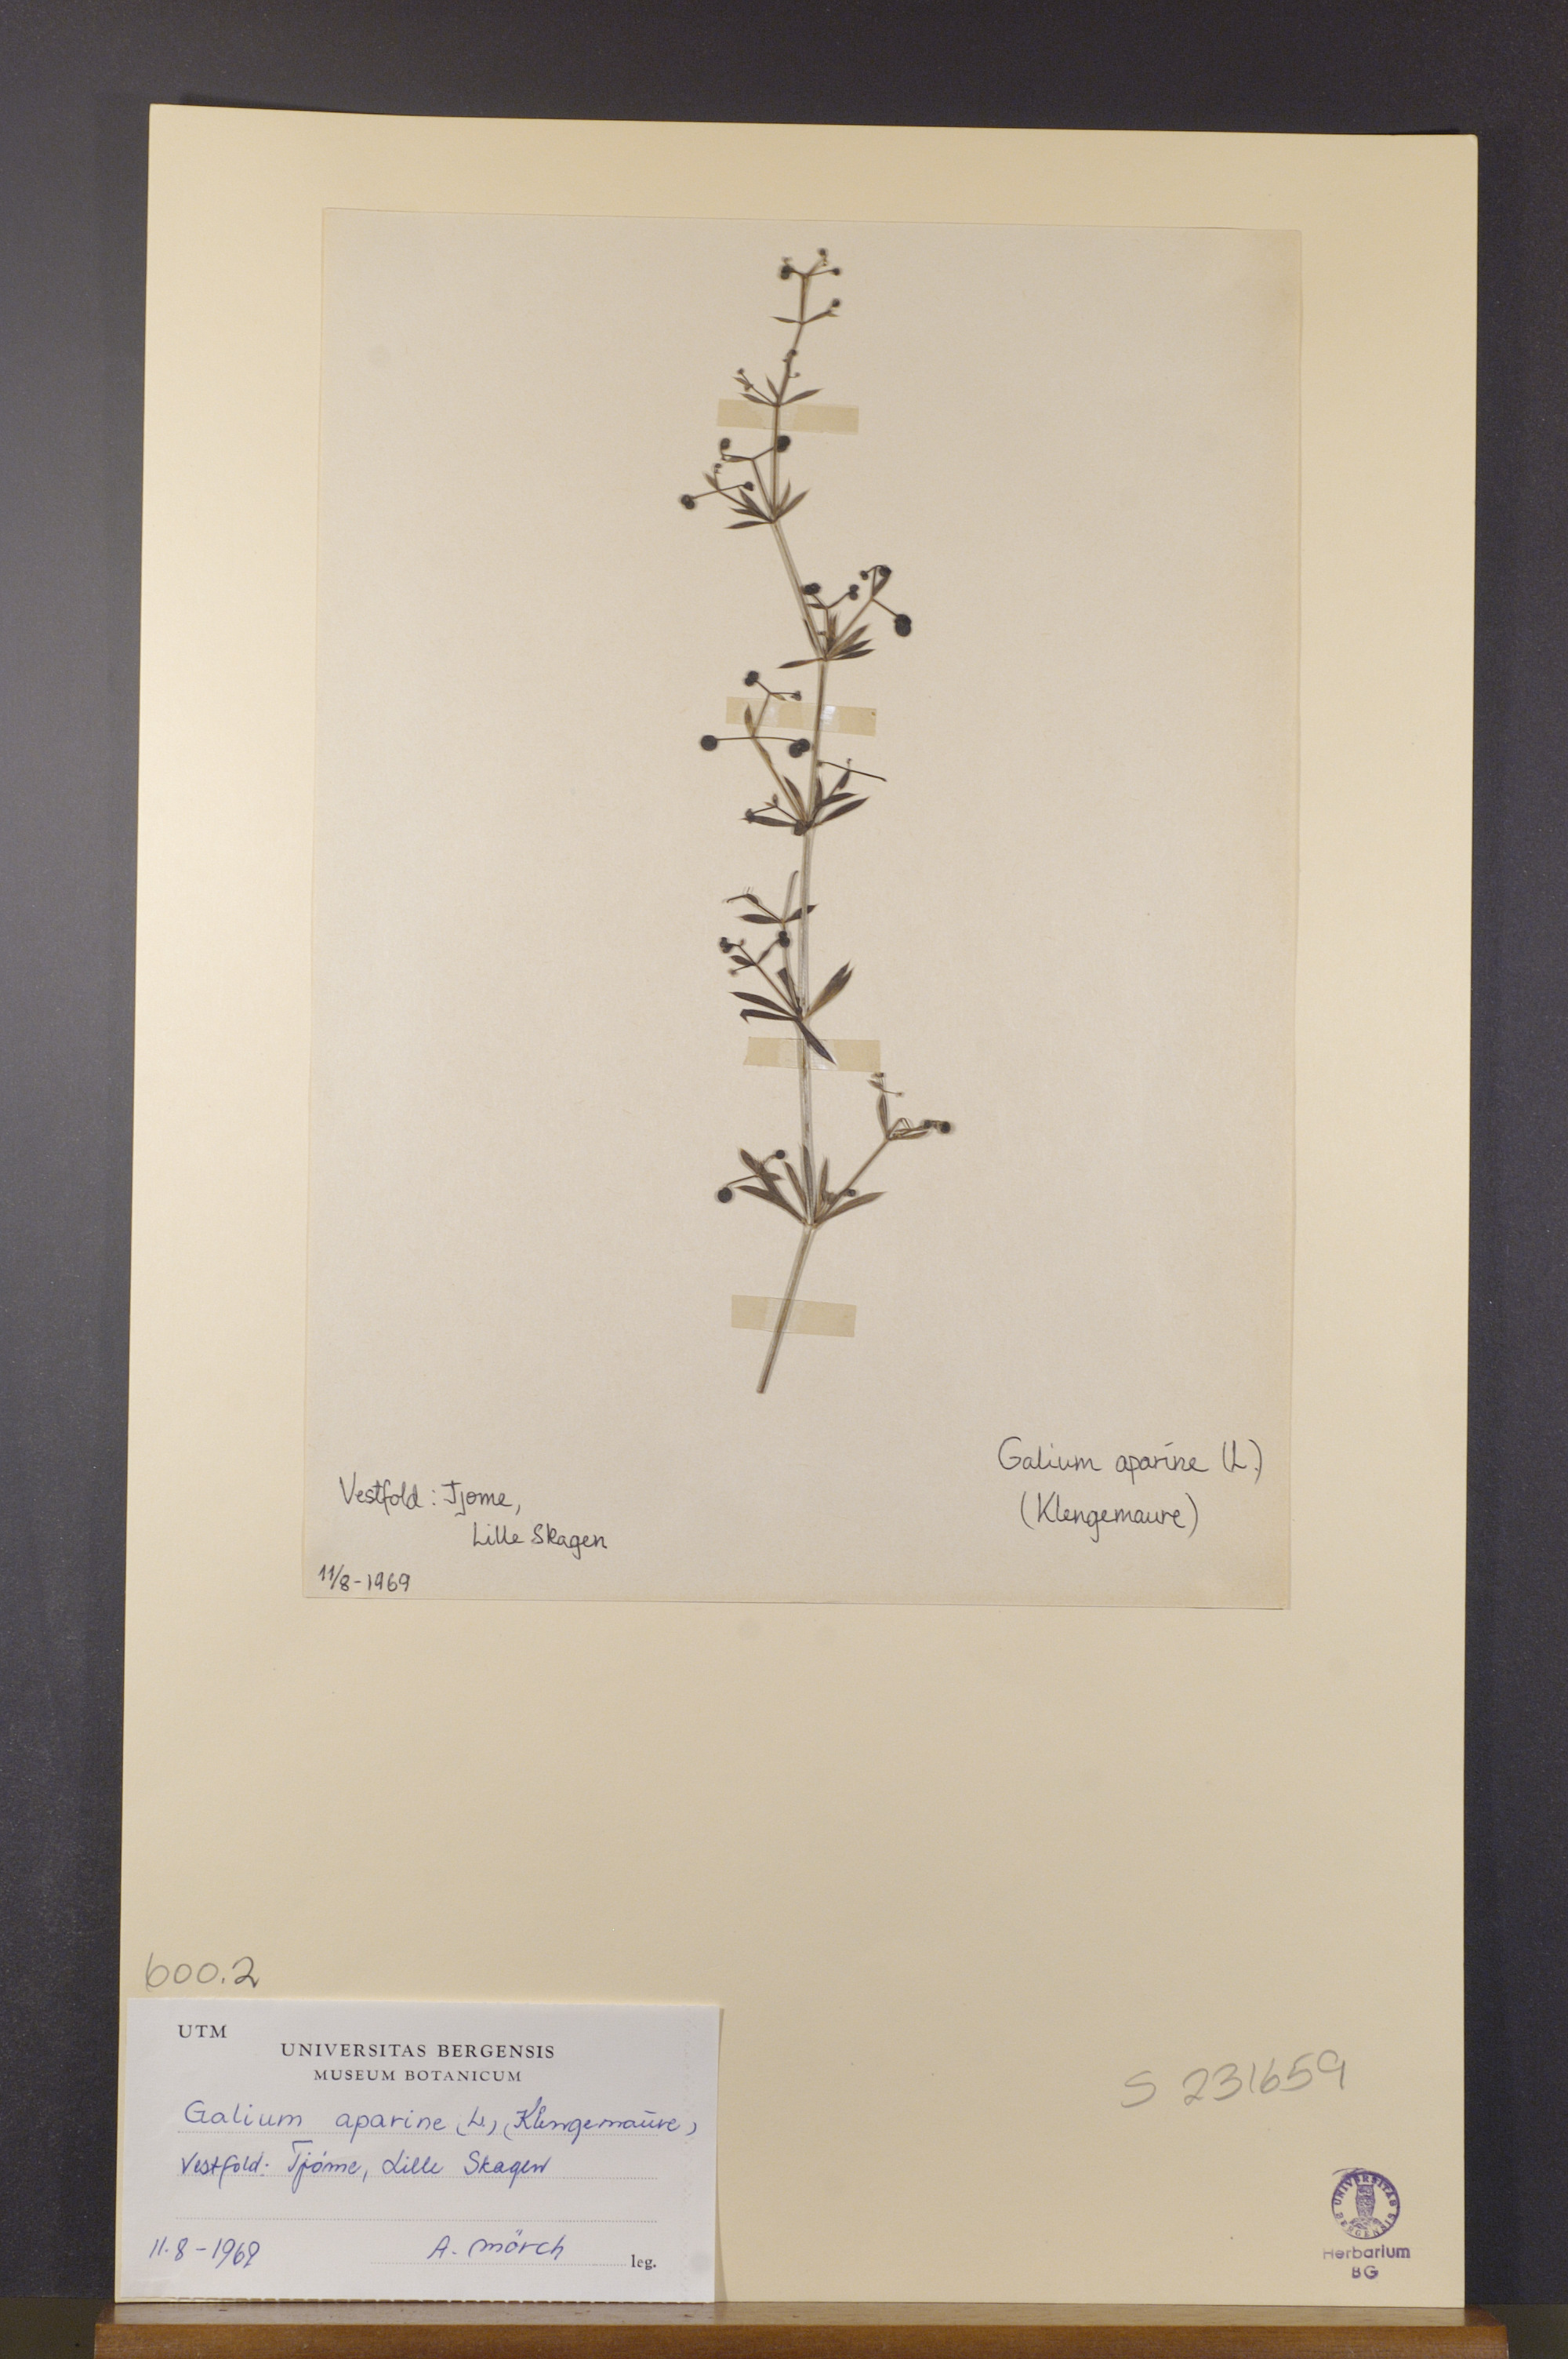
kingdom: Plantae
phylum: Tracheophyta
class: Magnoliopsida
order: Gentianales
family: Rubiaceae
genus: Galium
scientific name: Galium aparine
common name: Cleavers
